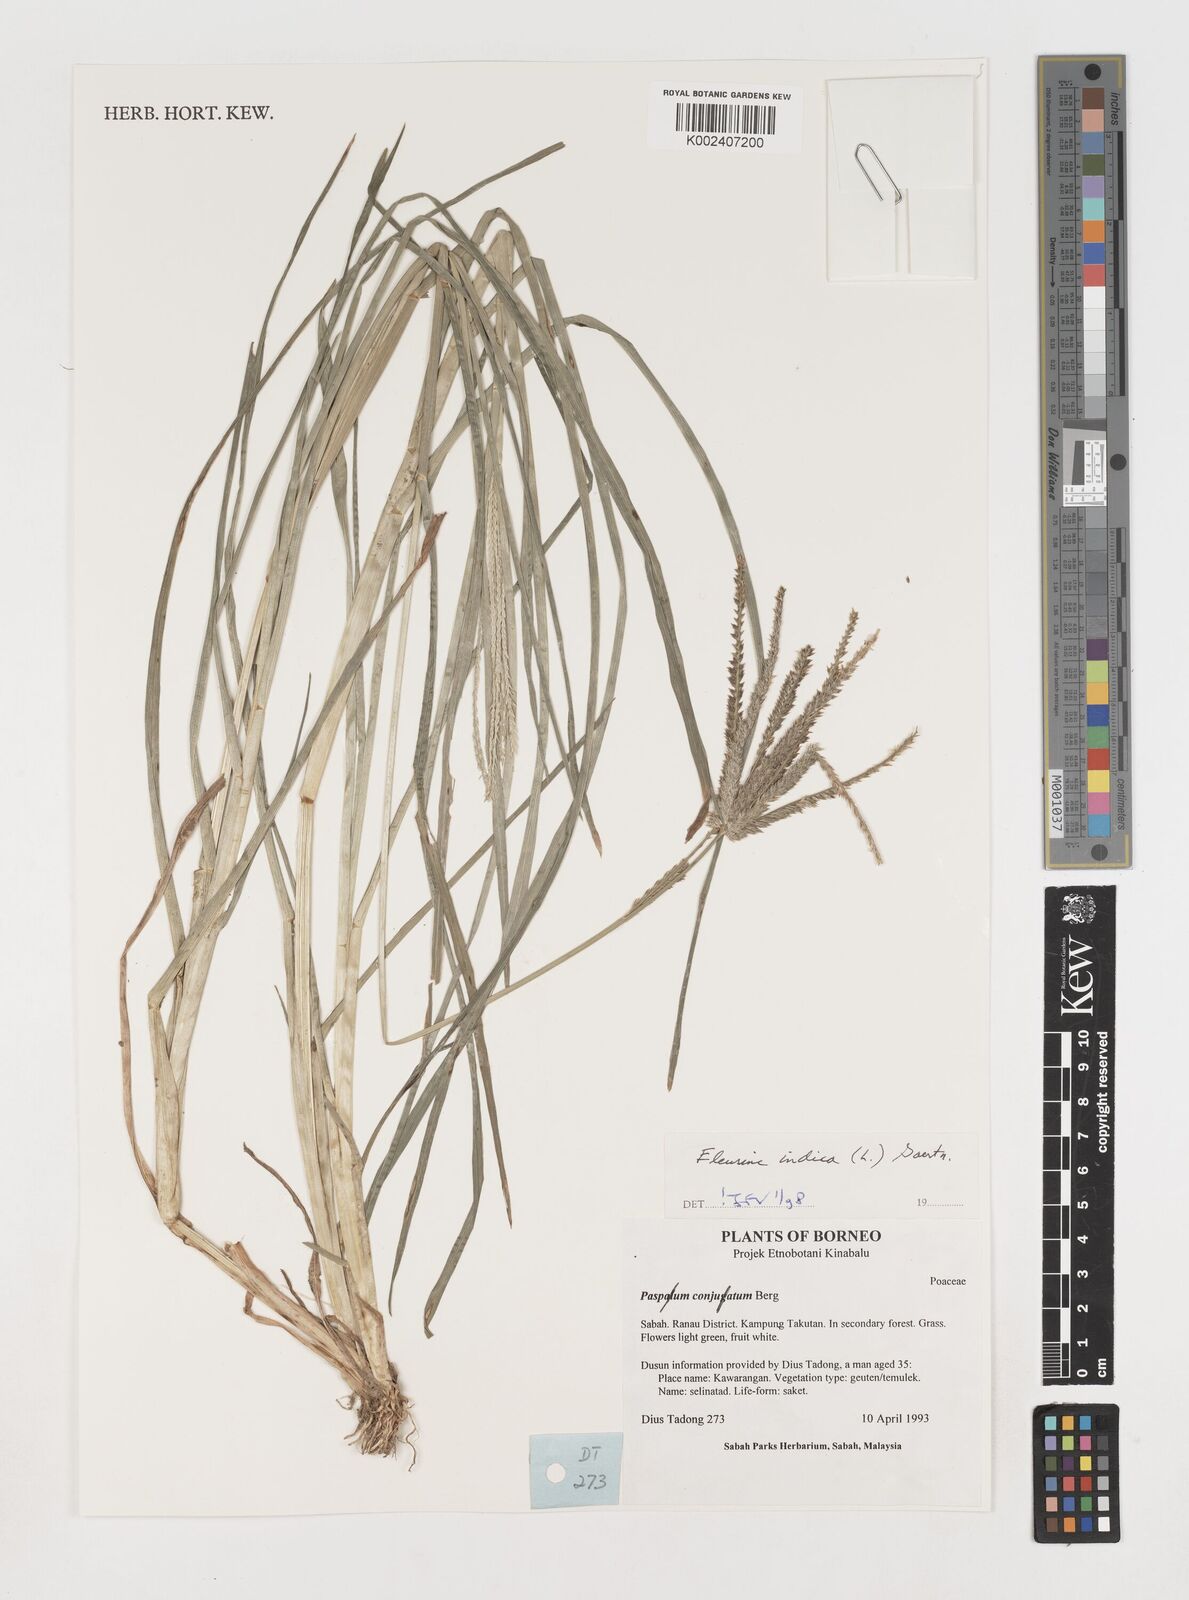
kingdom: Plantae
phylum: Tracheophyta
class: Liliopsida
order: Poales
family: Poaceae
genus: Eleusine
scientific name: Eleusine indica
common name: Yard-grass
